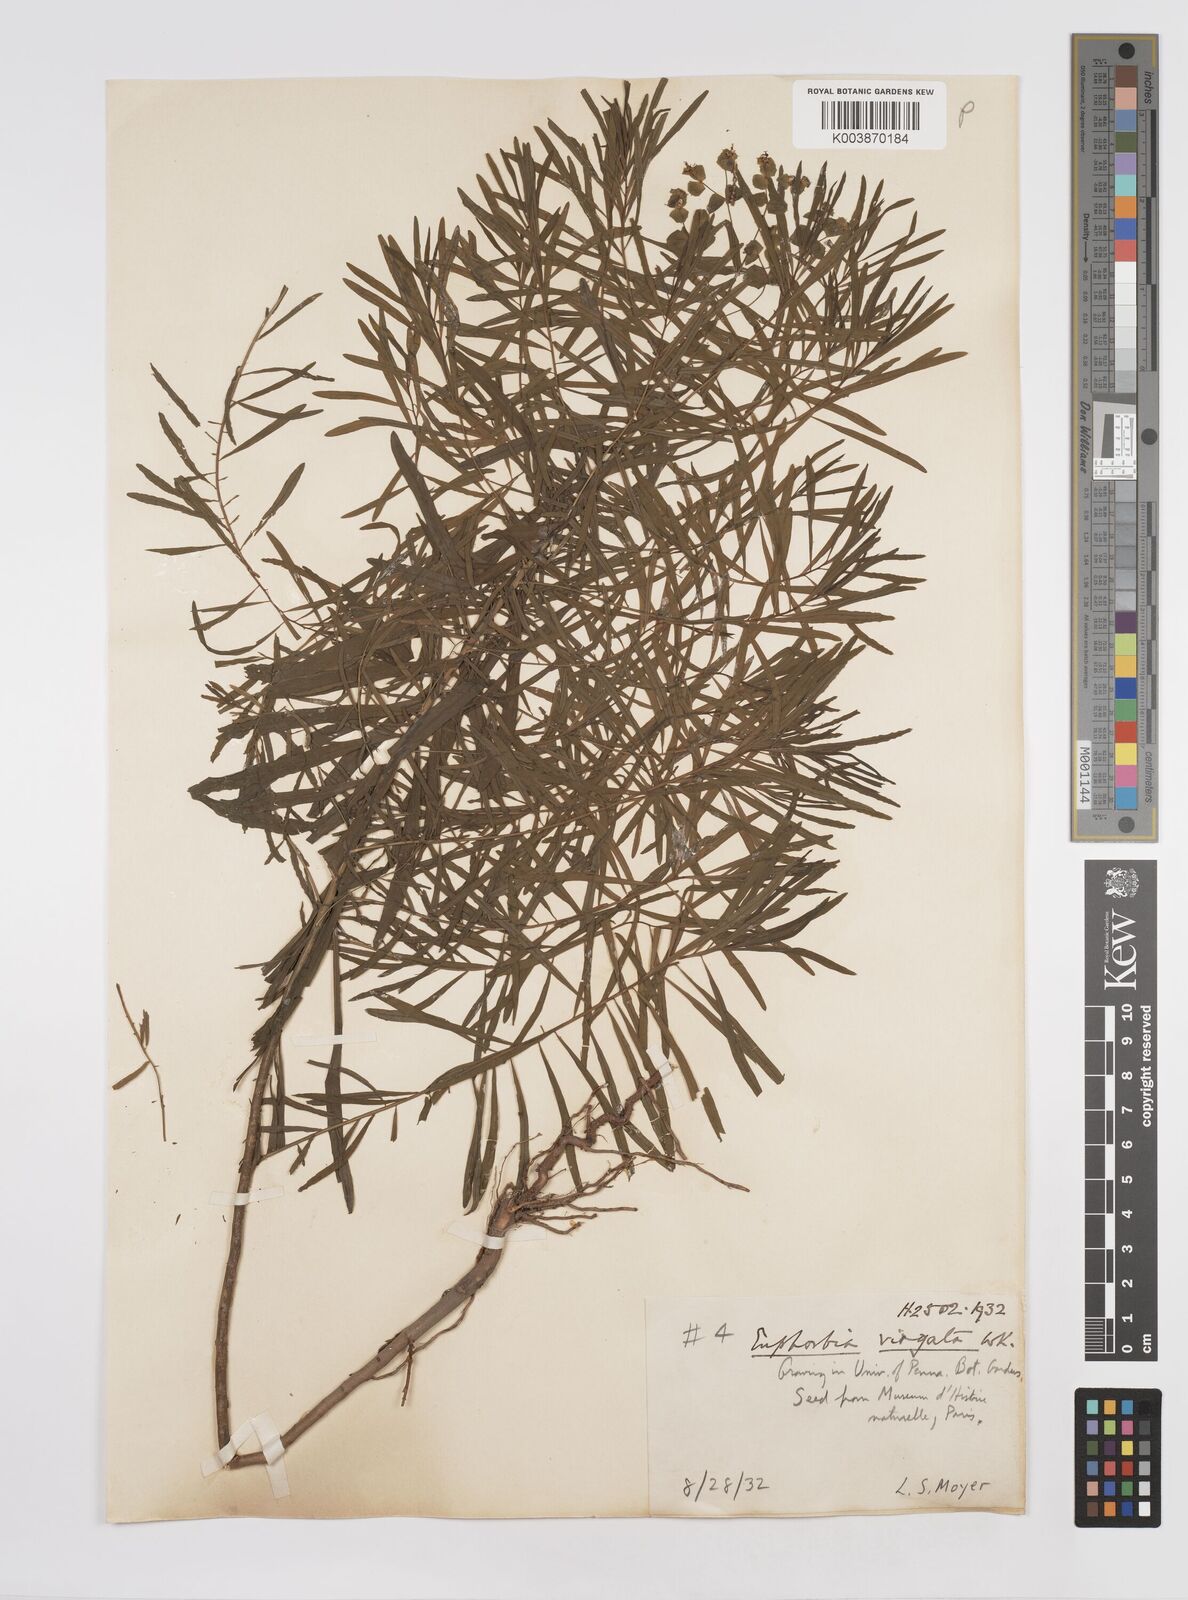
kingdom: Plantae
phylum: Tracheophyta
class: Magnoliopsida
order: Malpighiales
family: Euphorbiaceae
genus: Euphorbia
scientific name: Euphorbia
